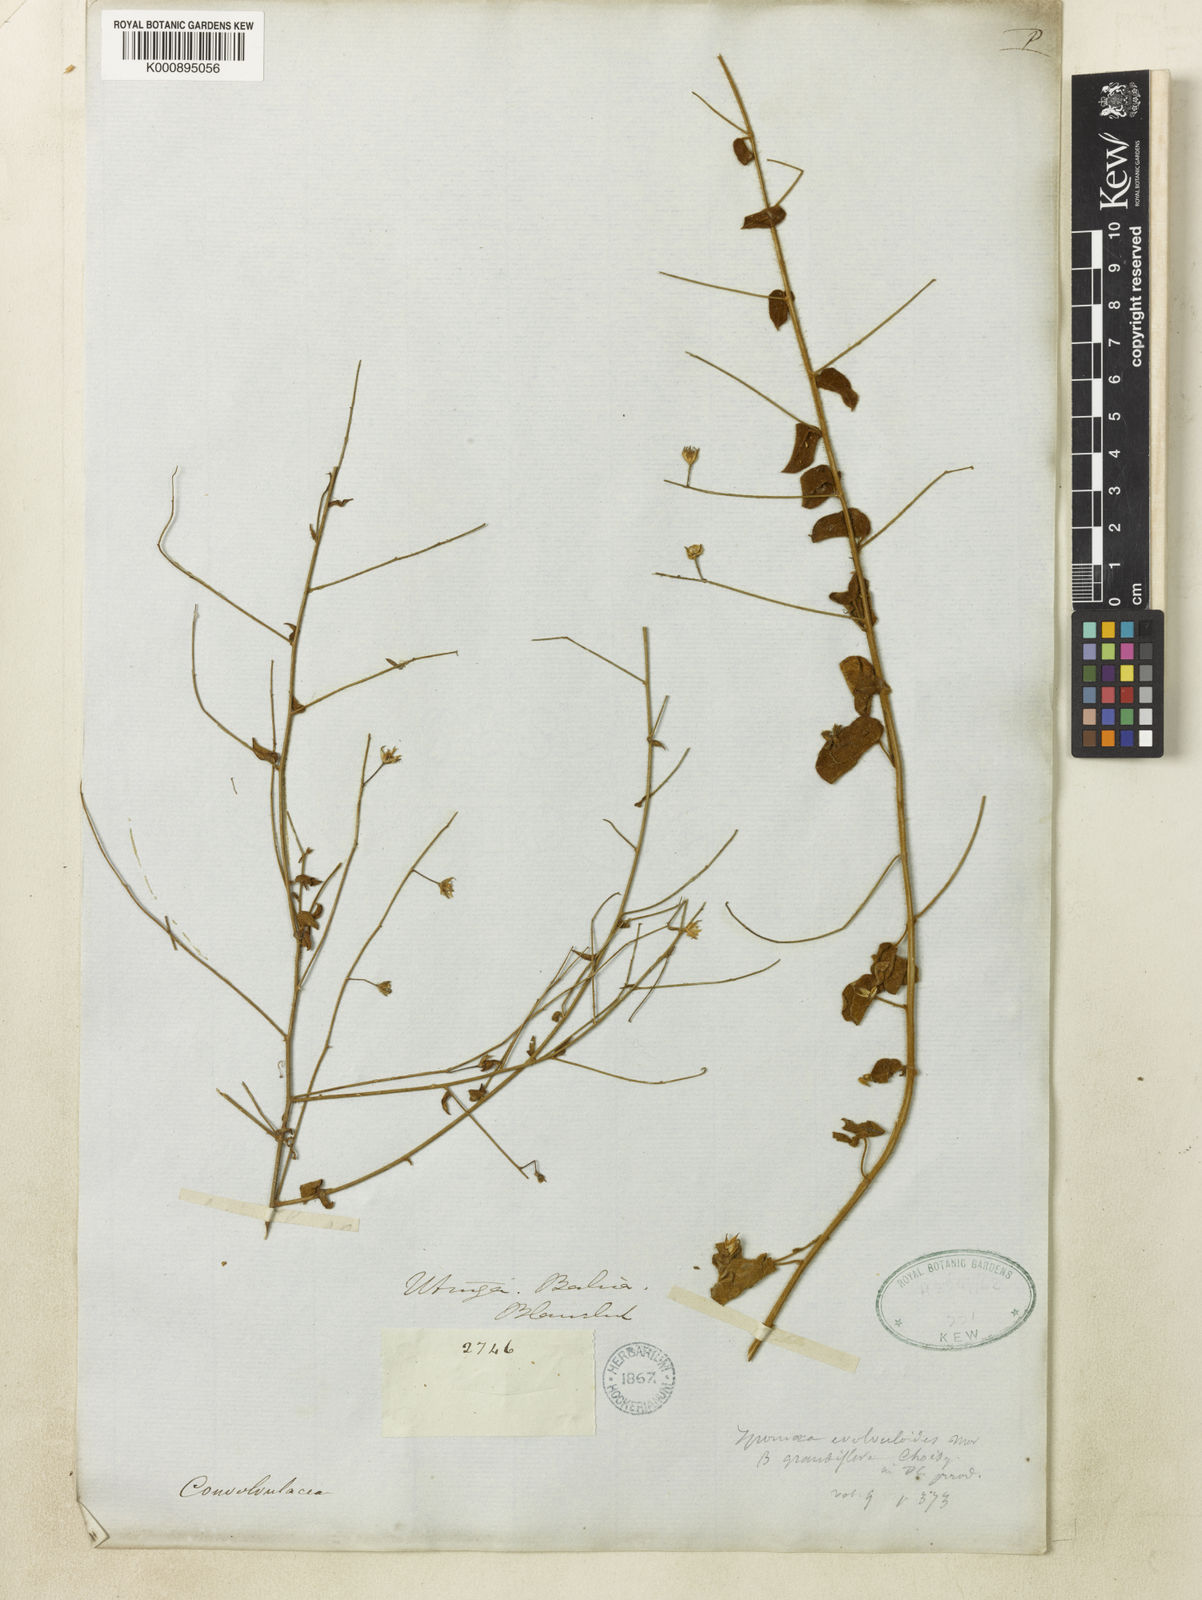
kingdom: Plantae
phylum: Tracheophyta
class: Magnoliopsida
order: Solanales
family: Convolvulaceae
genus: Jacquemontia
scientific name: Jacquemontia evolvuloides
